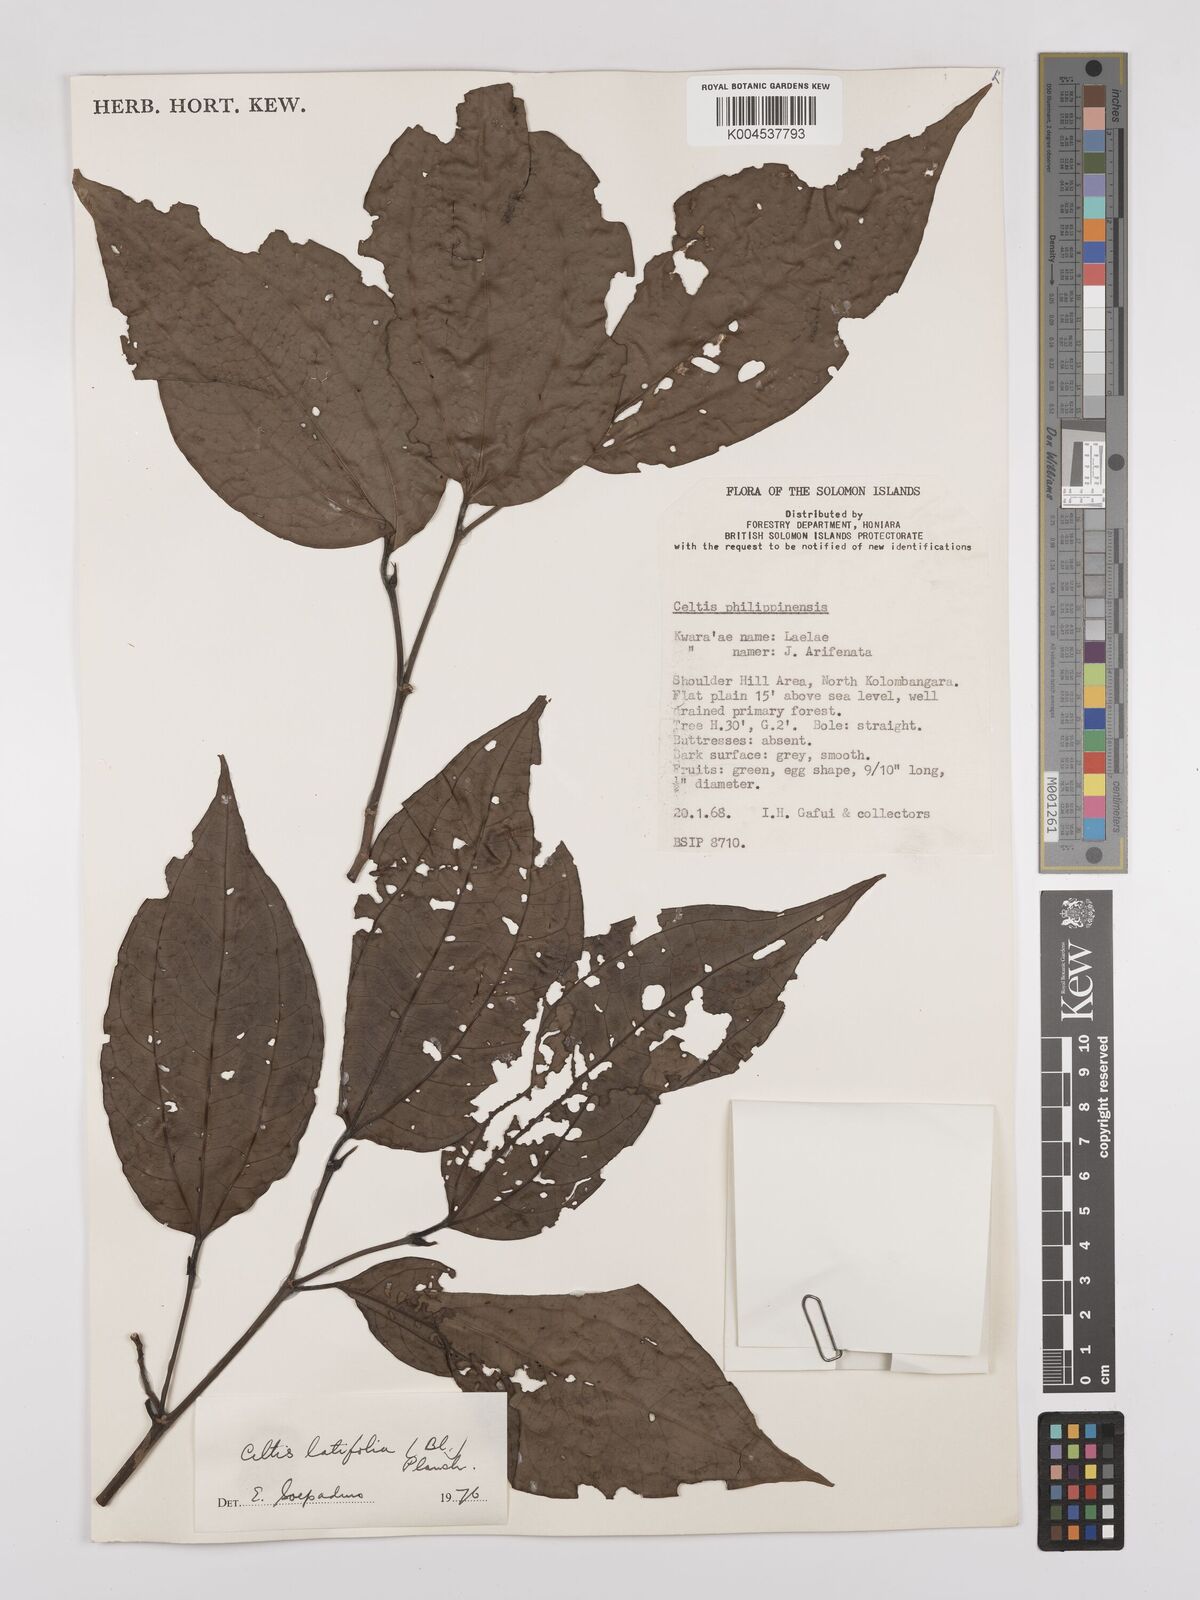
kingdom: Plantae
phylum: Tracheophyta
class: Magnoliopsida
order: Rosales
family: Cannabaceae
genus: Celtis
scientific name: Celtis latifolia
